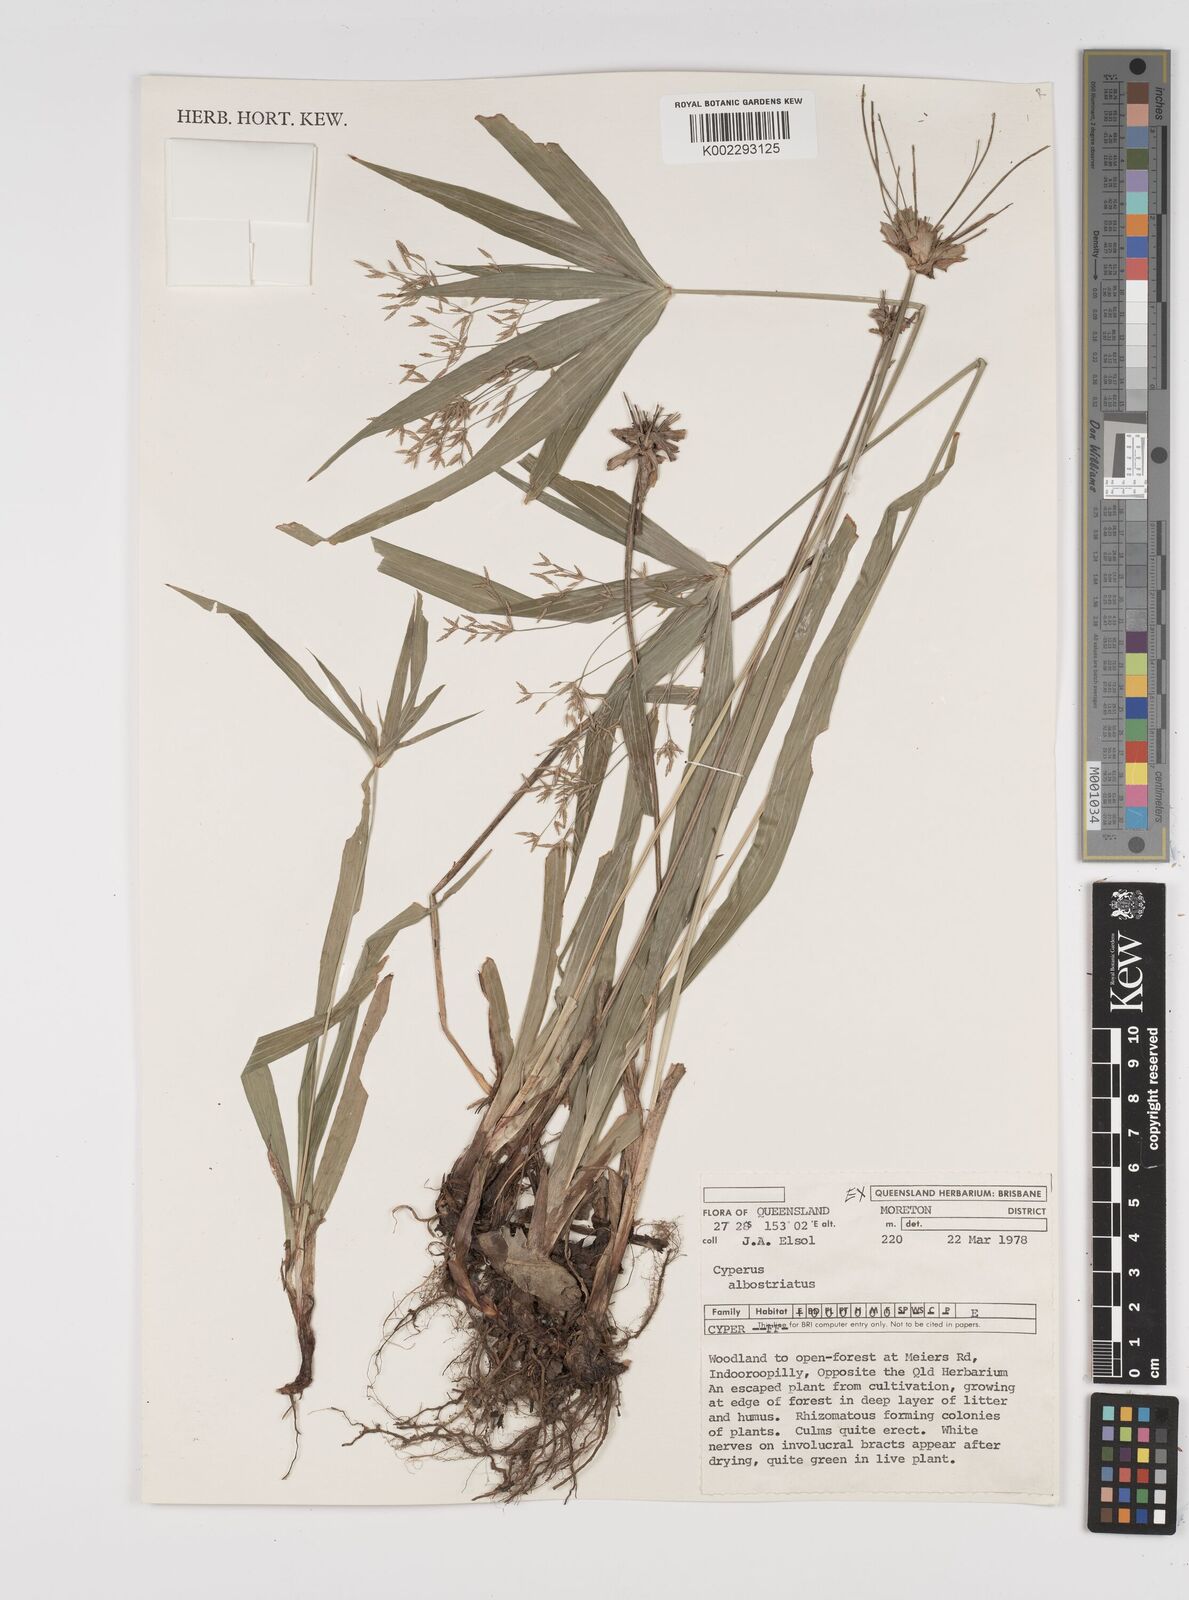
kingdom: Plantae
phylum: Tracheophyta
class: Liliopsida
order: Poales
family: Cyperaceae
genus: Cyperus
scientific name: Cyperus albostriatus
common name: Dwarf umbrella-grass
